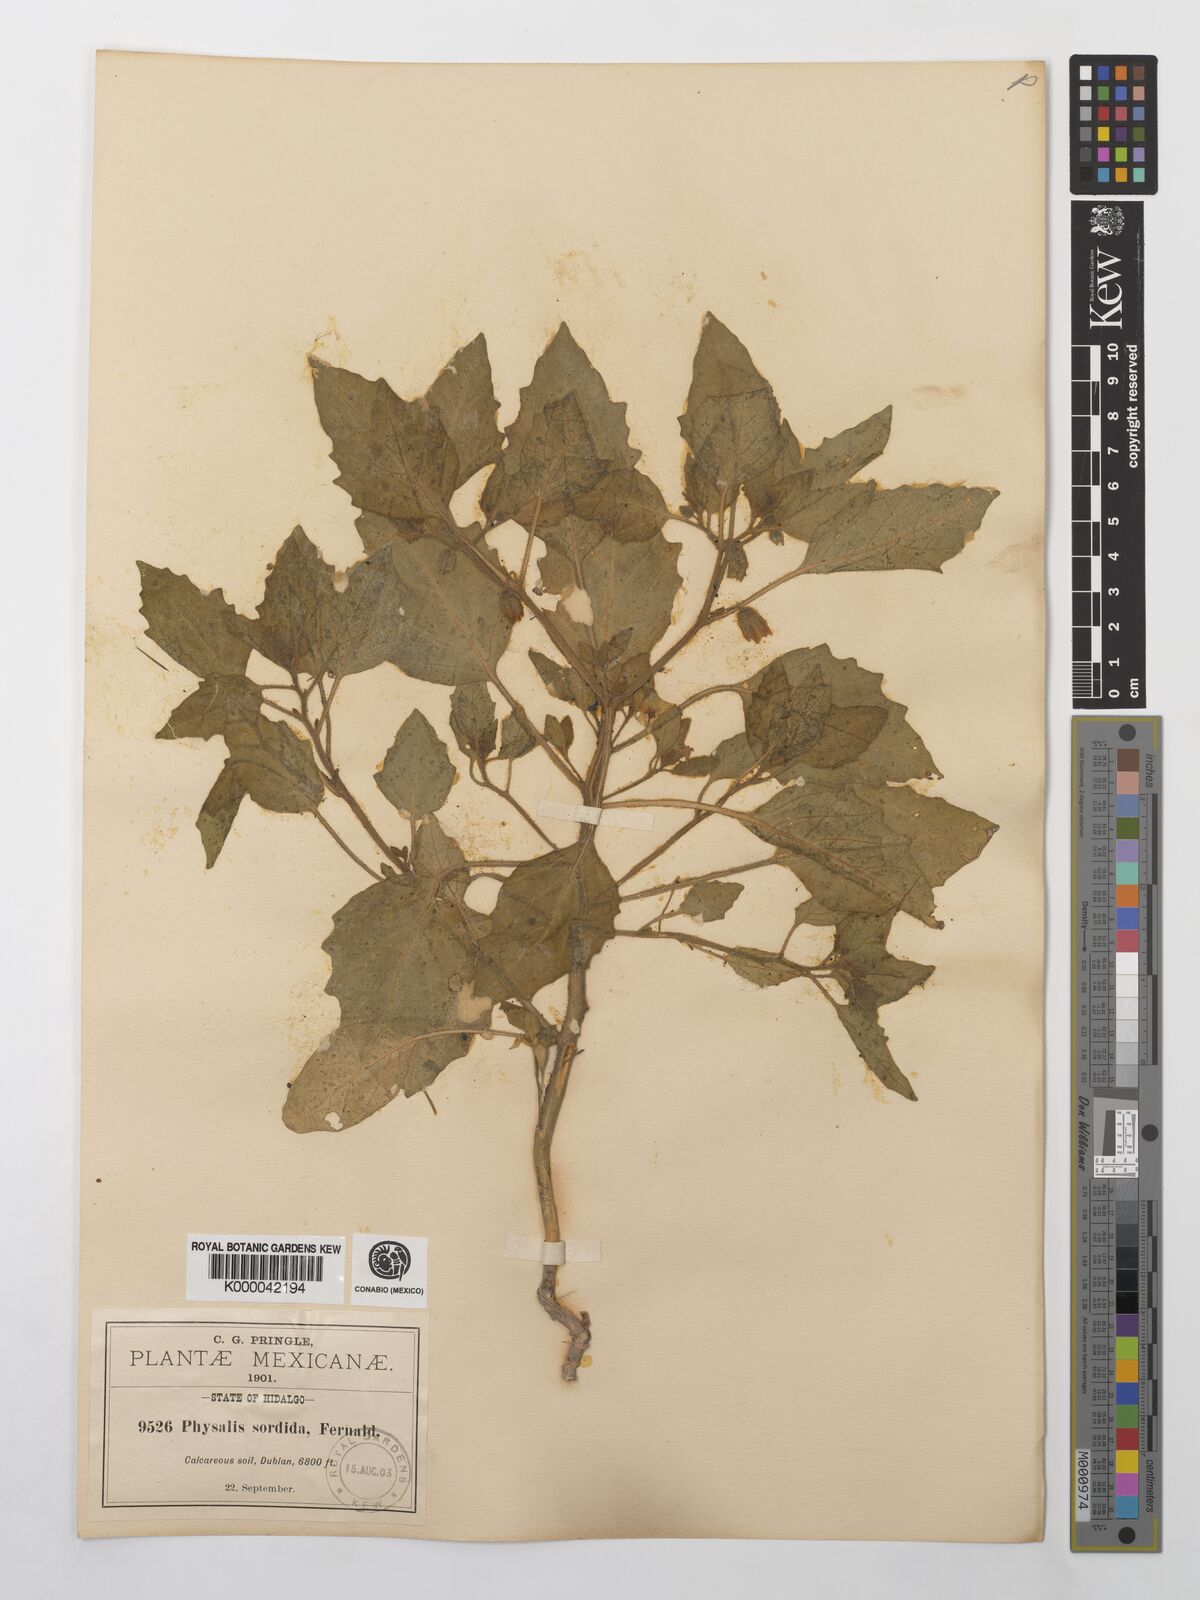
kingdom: Plantae
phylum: Tracheophyta
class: Magnoliopsida
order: Solanales
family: Solanaceae
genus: Physalis
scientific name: Physalis sordida
